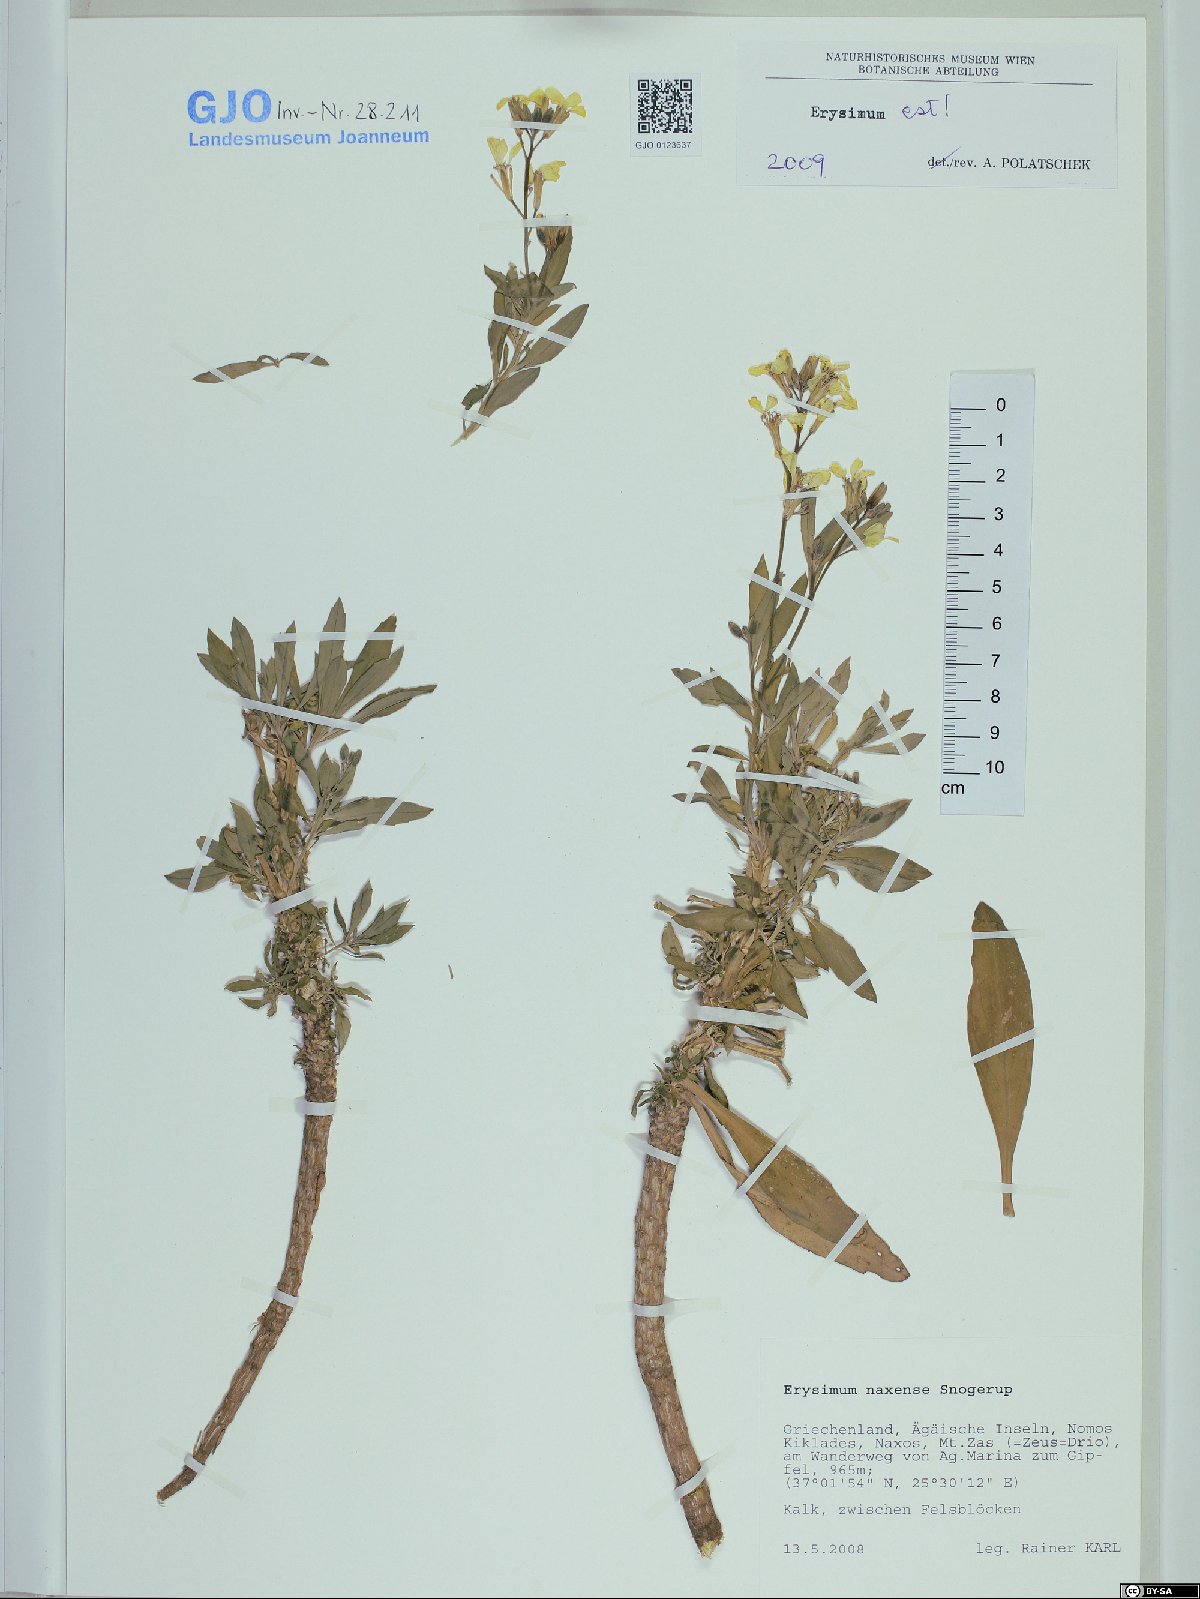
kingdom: Plantae
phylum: Tracheophyta
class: Magnoliopsida
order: Brassicales
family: Brassicaceae
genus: Erysimum
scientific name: Erysimum naxense
